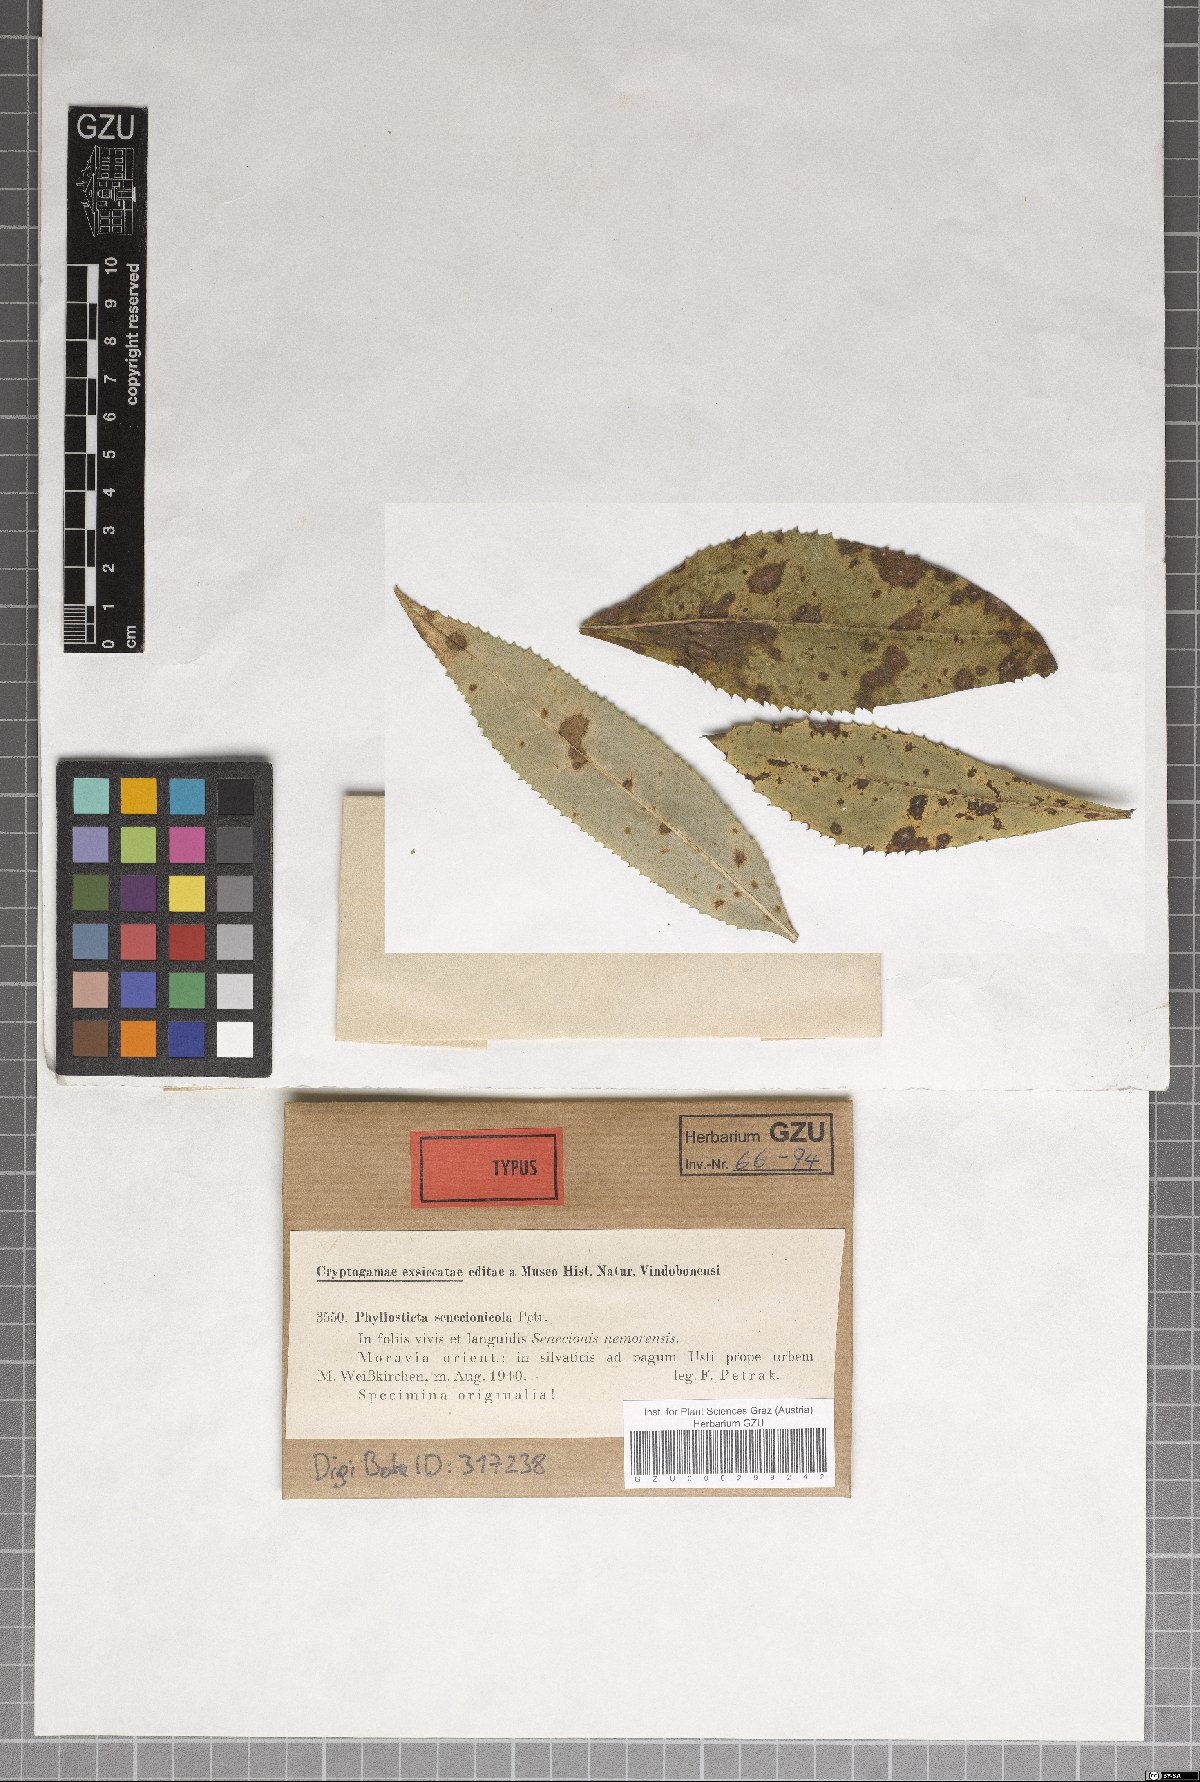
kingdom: Fungi
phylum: Ascomycota
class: Dothideomycetes
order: Botryosphaeriales
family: Phyllostictaceae
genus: Phyllosticta
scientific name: Phyllosticta senecionicola
